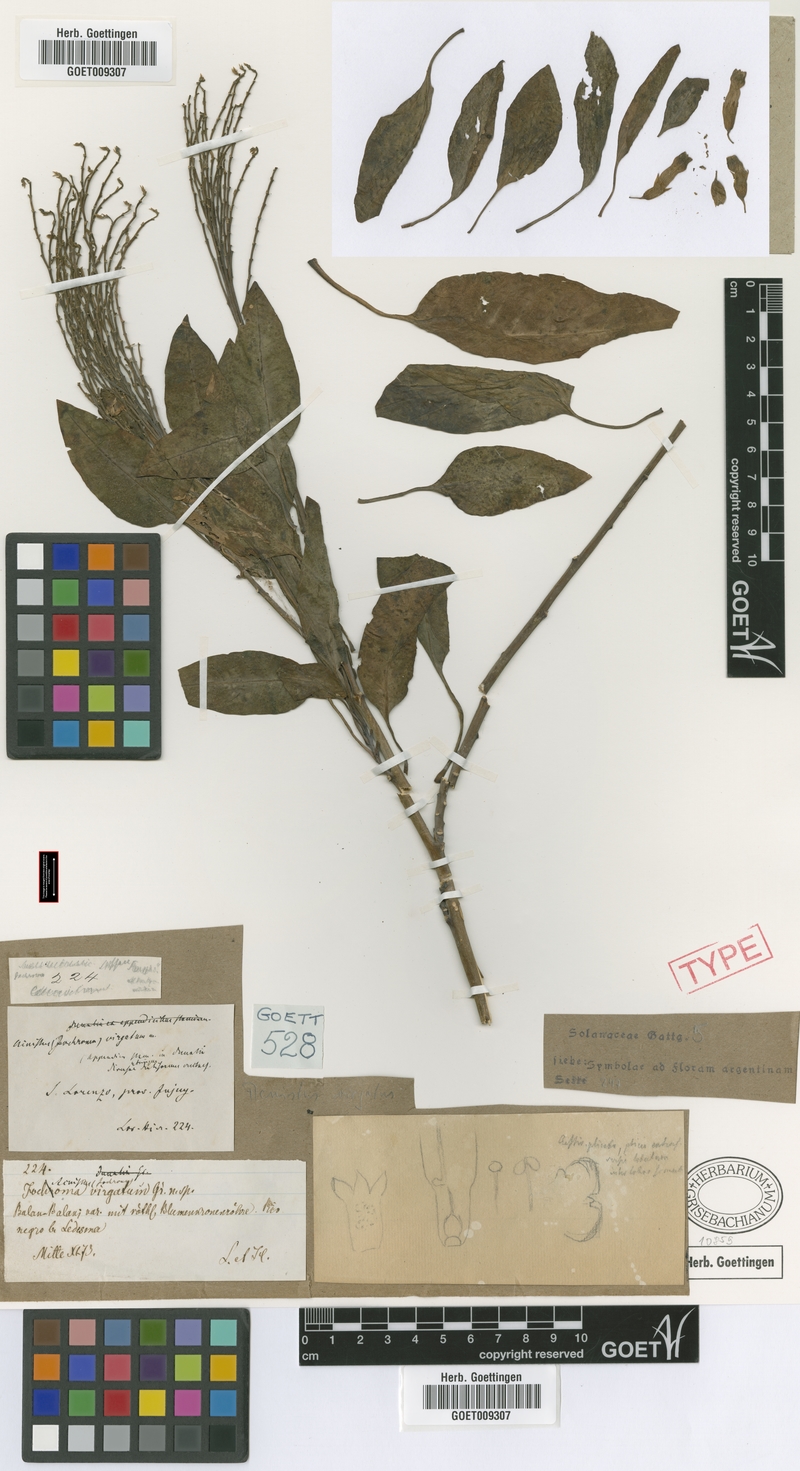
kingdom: Plantae
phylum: Tracheophyta
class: Magnoliopsida
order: Solanales
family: Solanaceae
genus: Nicotiana
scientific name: Nicotiana glauca
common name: Tree tobacco
